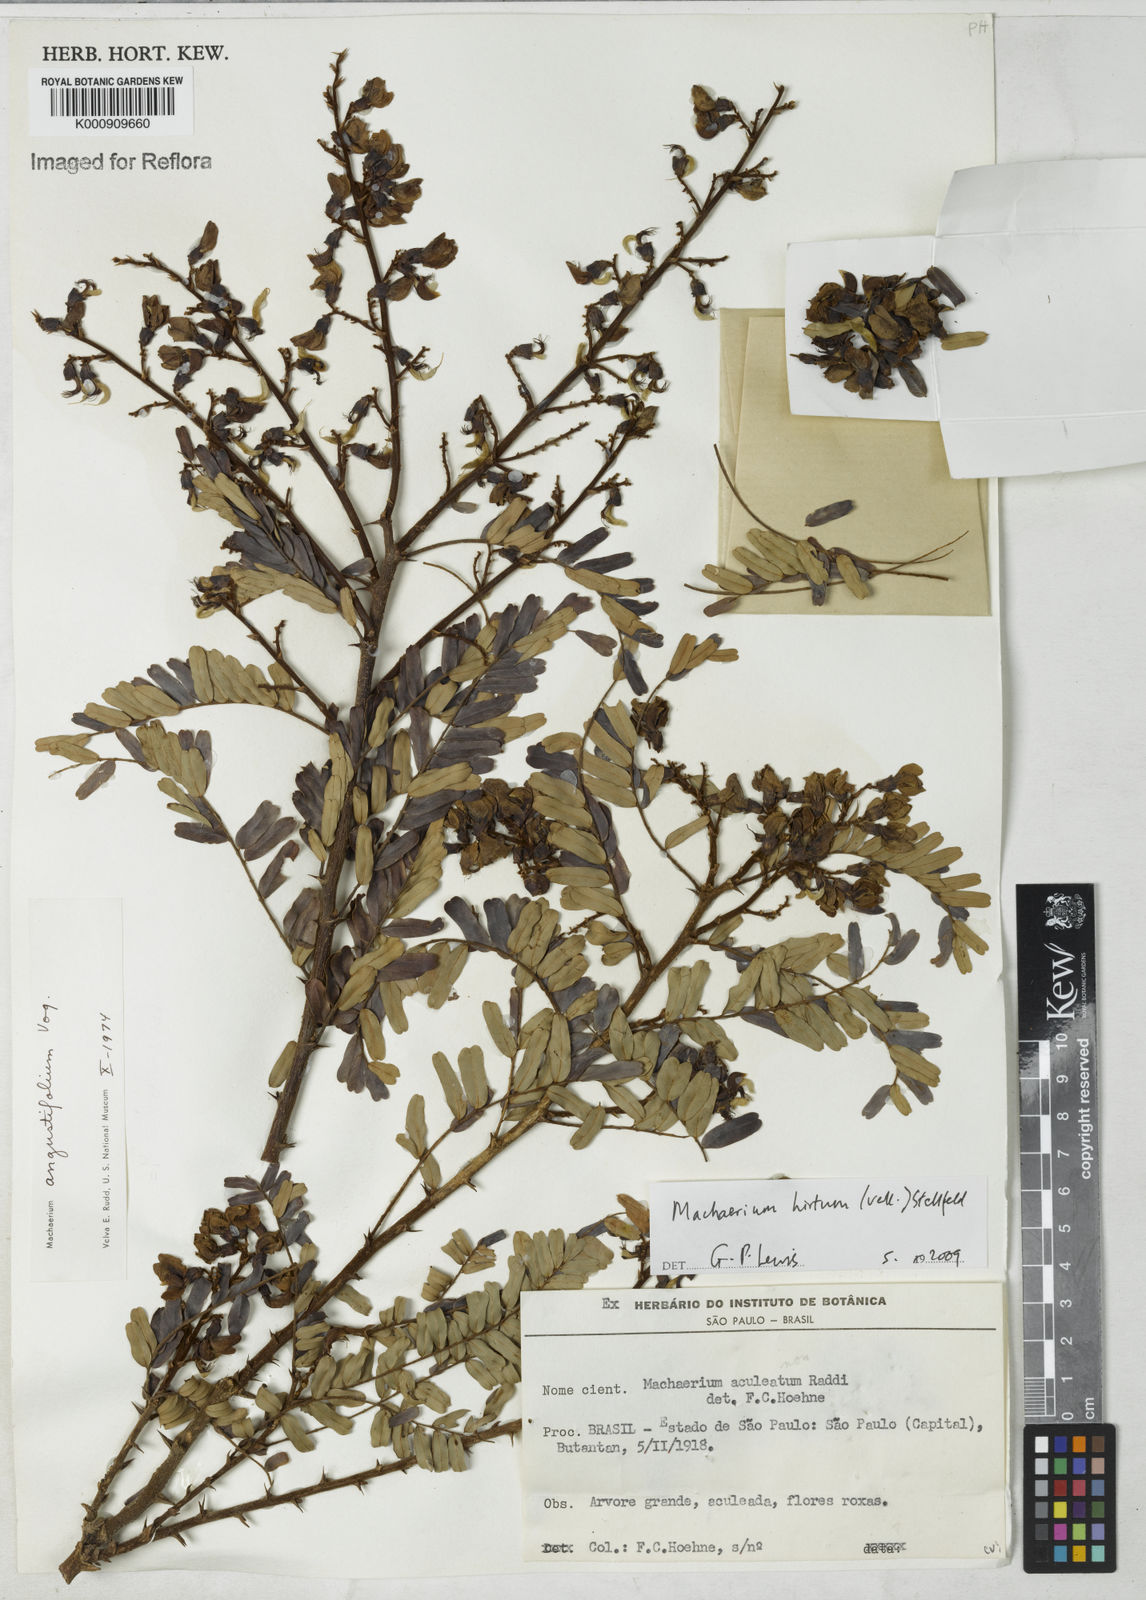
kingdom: Plantae
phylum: Tracheophyta
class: Magnoliopsida
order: Fabales
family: Fabaceae
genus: Machaerium
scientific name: Machaerium hirtum
